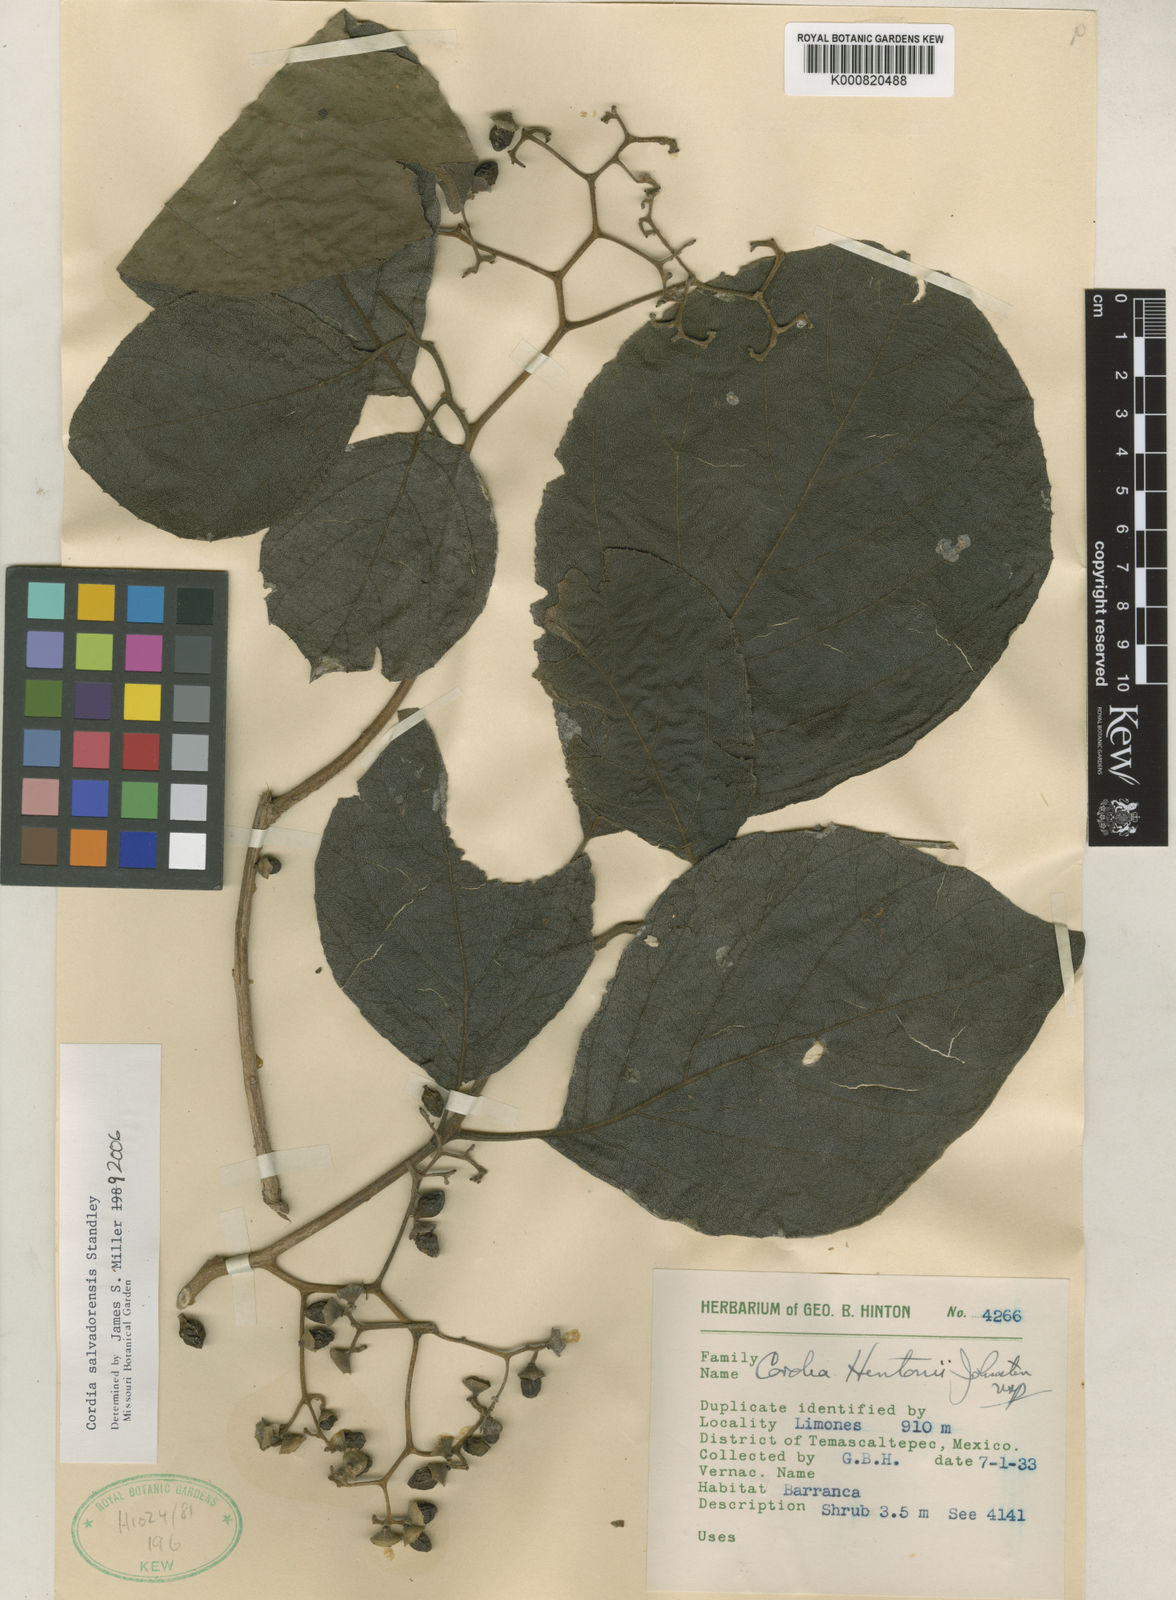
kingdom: Plantae
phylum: Tracheophyta
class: Magnoliopsida
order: Boraginales
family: Cordiaceae
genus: Cordia
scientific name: Cordia salvadorensis
